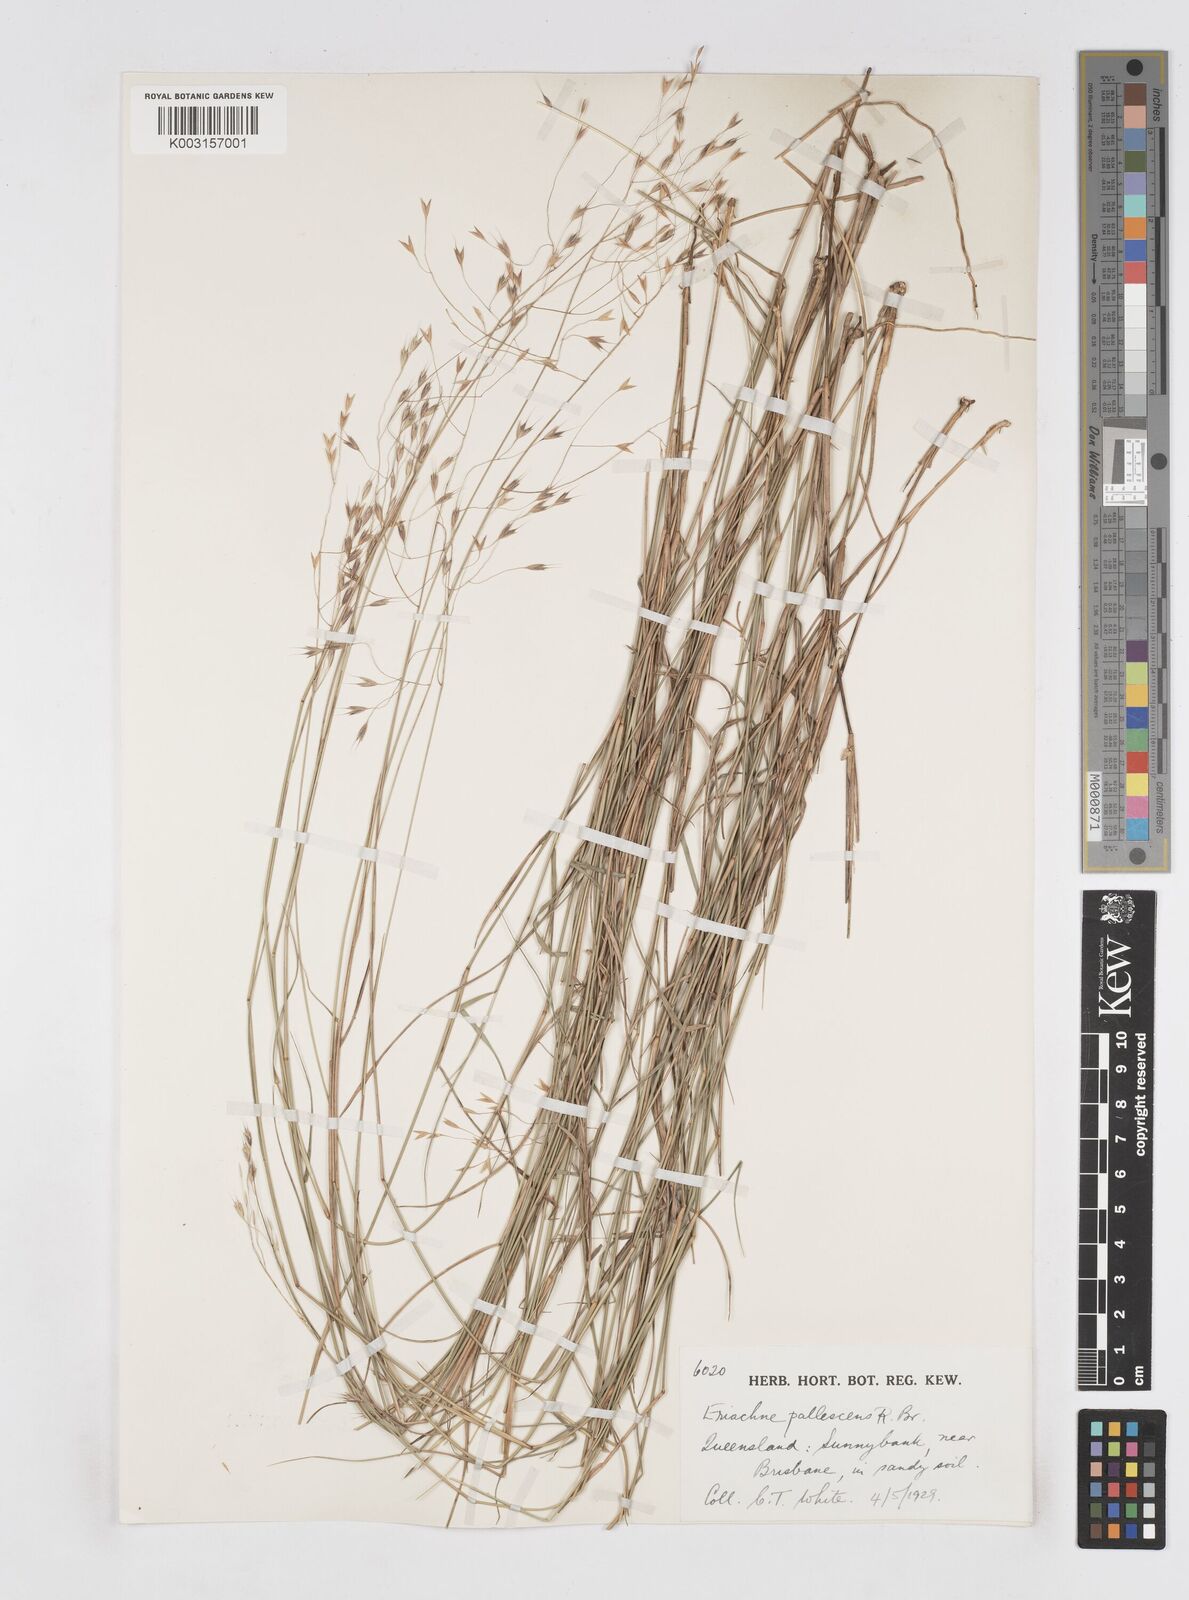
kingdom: Plantae
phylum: Tracheophyta
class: Liliopsida
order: Poales
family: Poaceae
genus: Eriachne
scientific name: Eriachne pallescens
